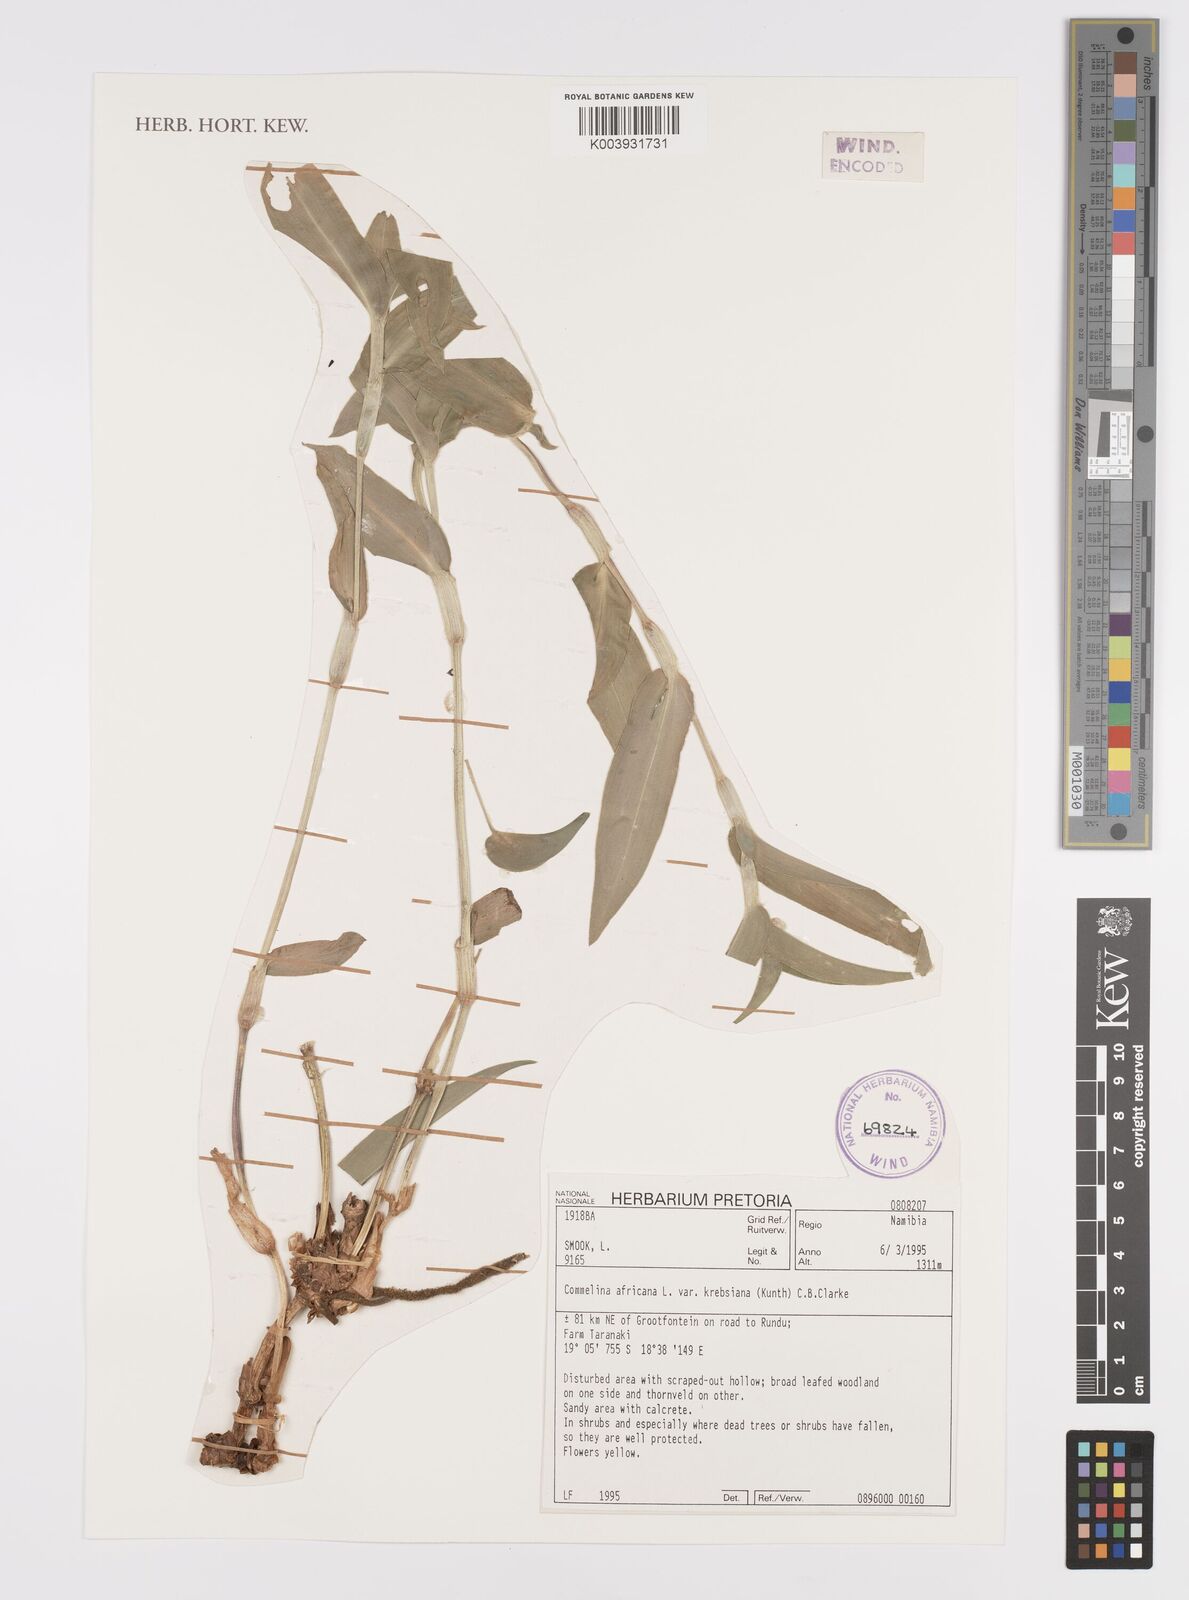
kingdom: Plantae
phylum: Tracheophyta
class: Liliopsida
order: Commelinales
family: Commelinaceae
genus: Commelina
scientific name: Commelina africana
